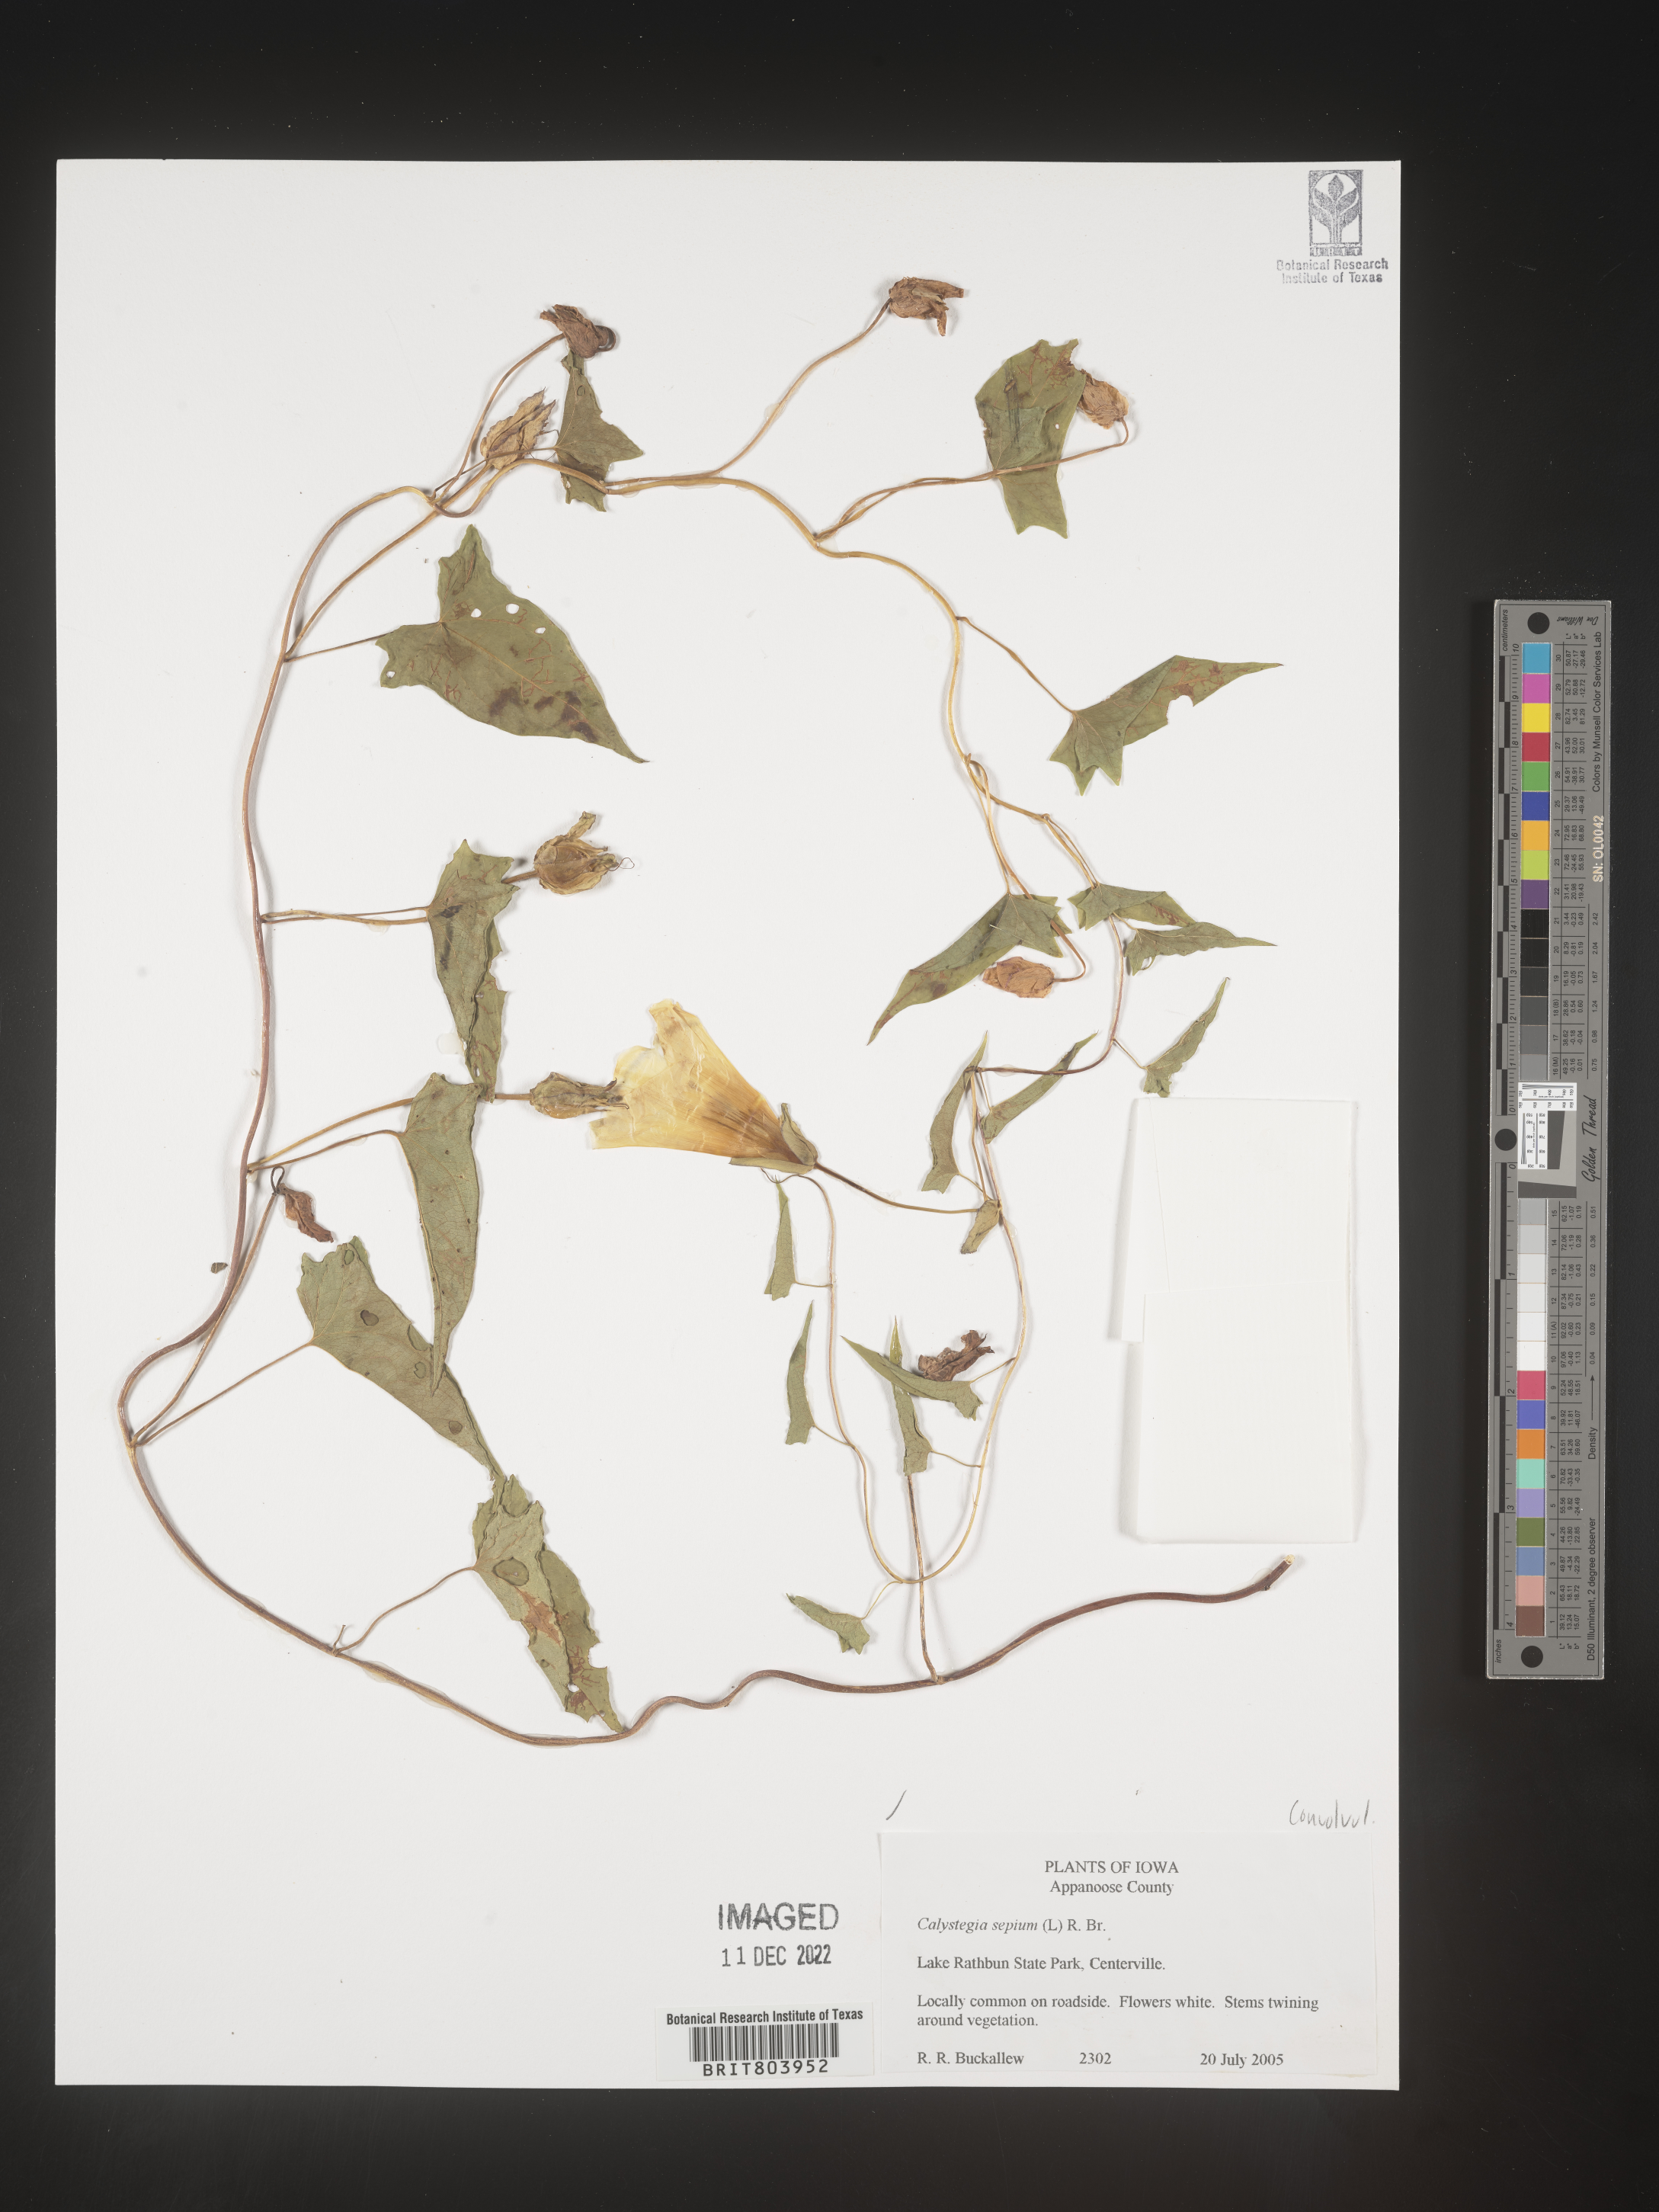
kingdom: Plantae
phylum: Tracheophyta
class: Magnoliopsida
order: Solanales
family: Convolvulaceae
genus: Calystegia
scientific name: Calystegia sepium
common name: Hedge bindweed
